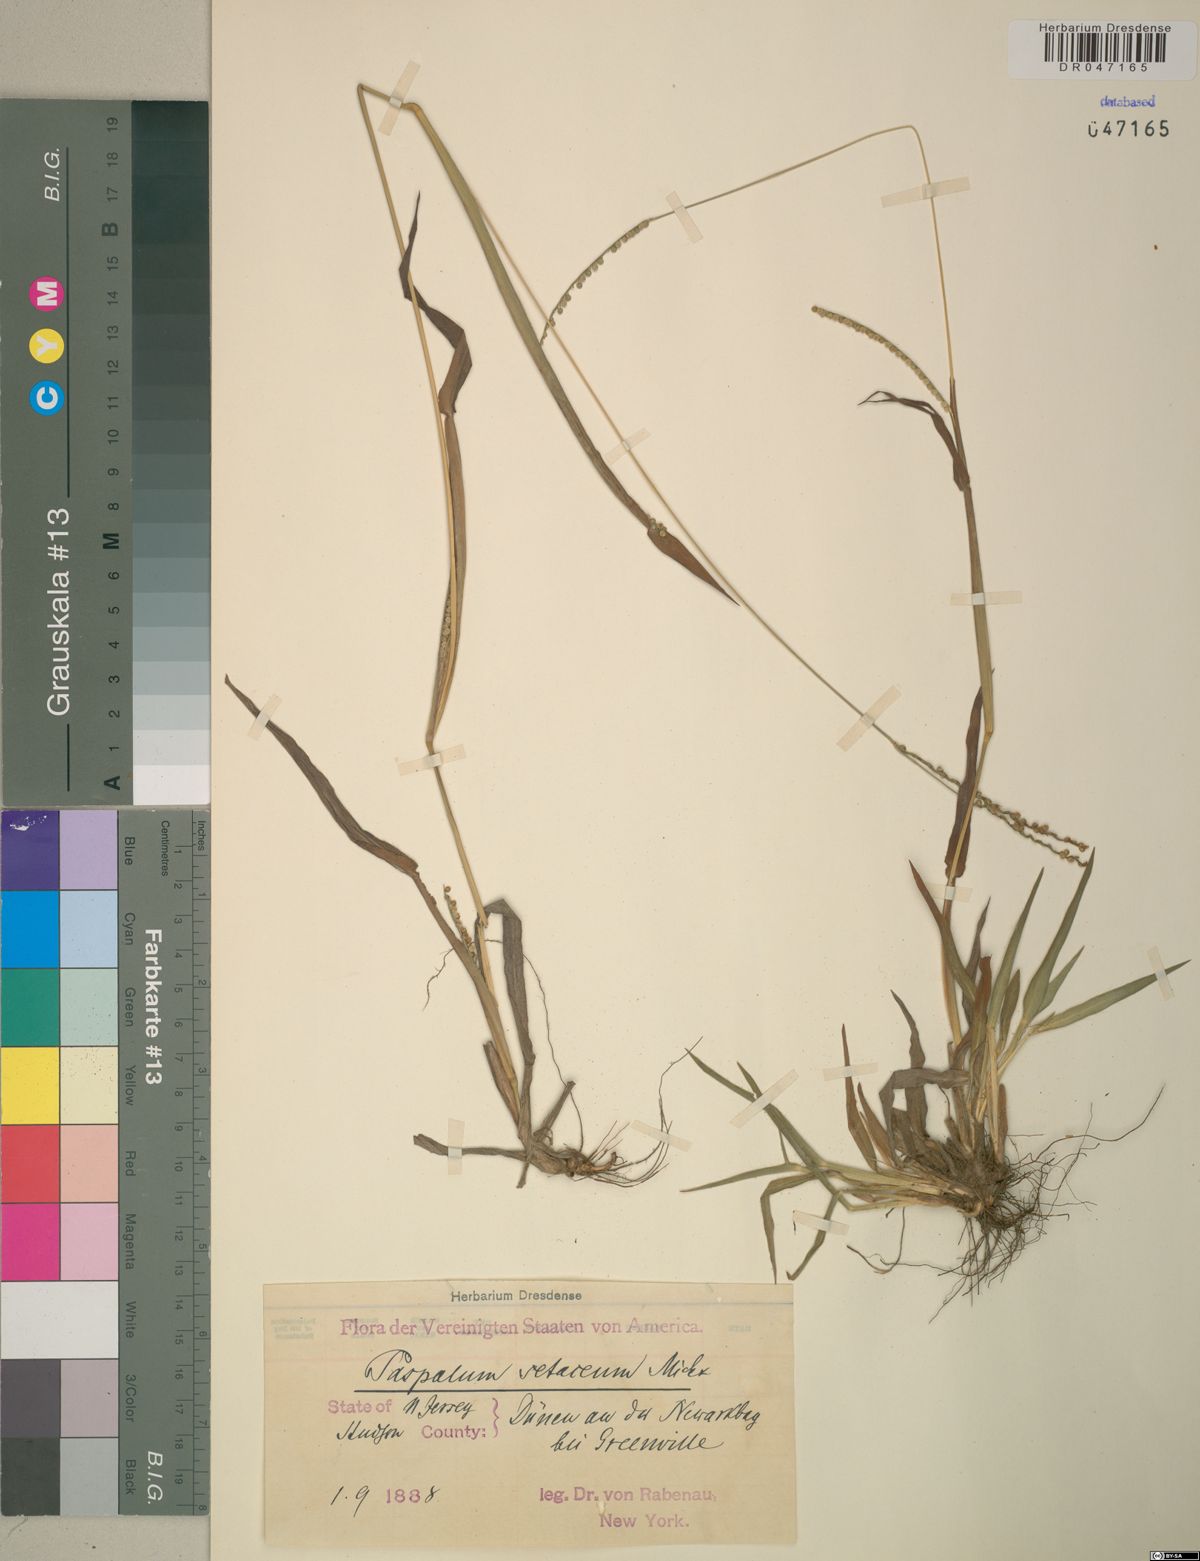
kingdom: Plantae
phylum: Tracheophyta
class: Liliopsida
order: Poales
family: Poaceae
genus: Paspalum
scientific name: Paspalum setaceum
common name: Slender paspalum
